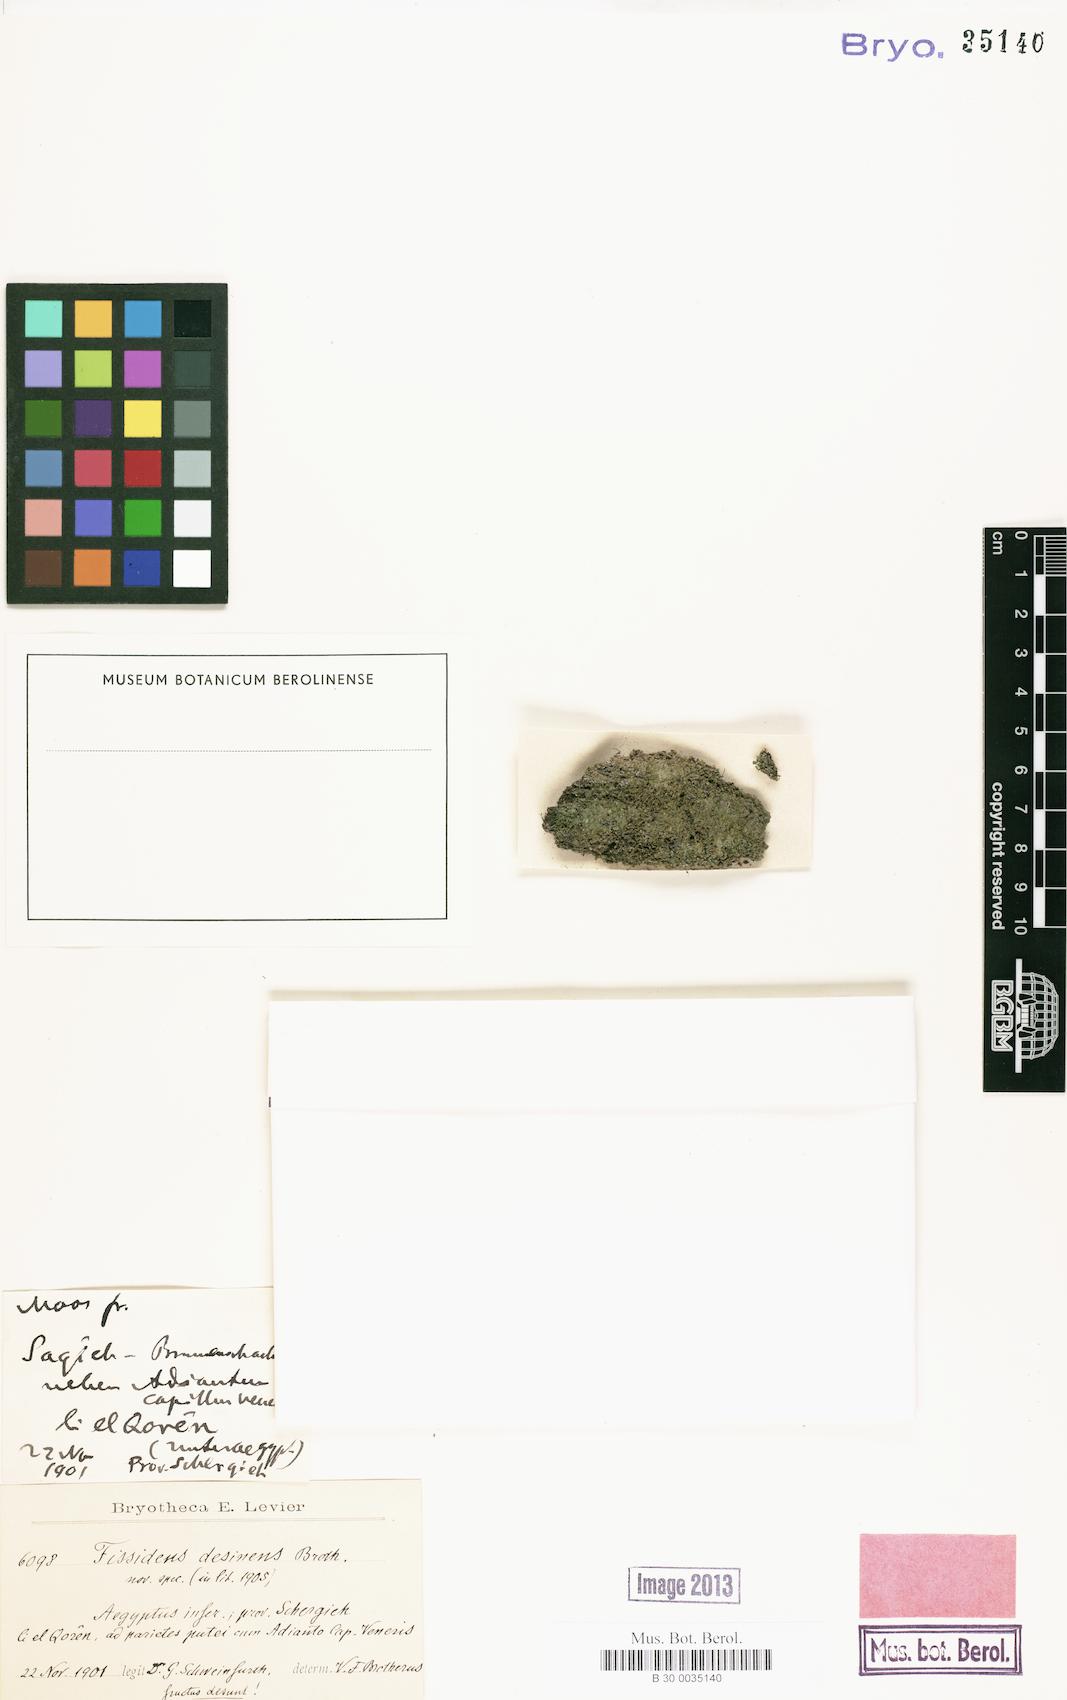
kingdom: Plantae
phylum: Bryophyta
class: Bryopsida
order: Dicranales
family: Fissidentaceae
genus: Fissidens
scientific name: Fissidens
